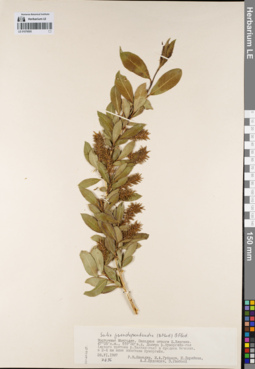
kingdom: Plantae
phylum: Tracheophyta
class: Magnoliopsida
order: Malpighiales
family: Salicaceae
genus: Salix
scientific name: Salix pseudopentandra
